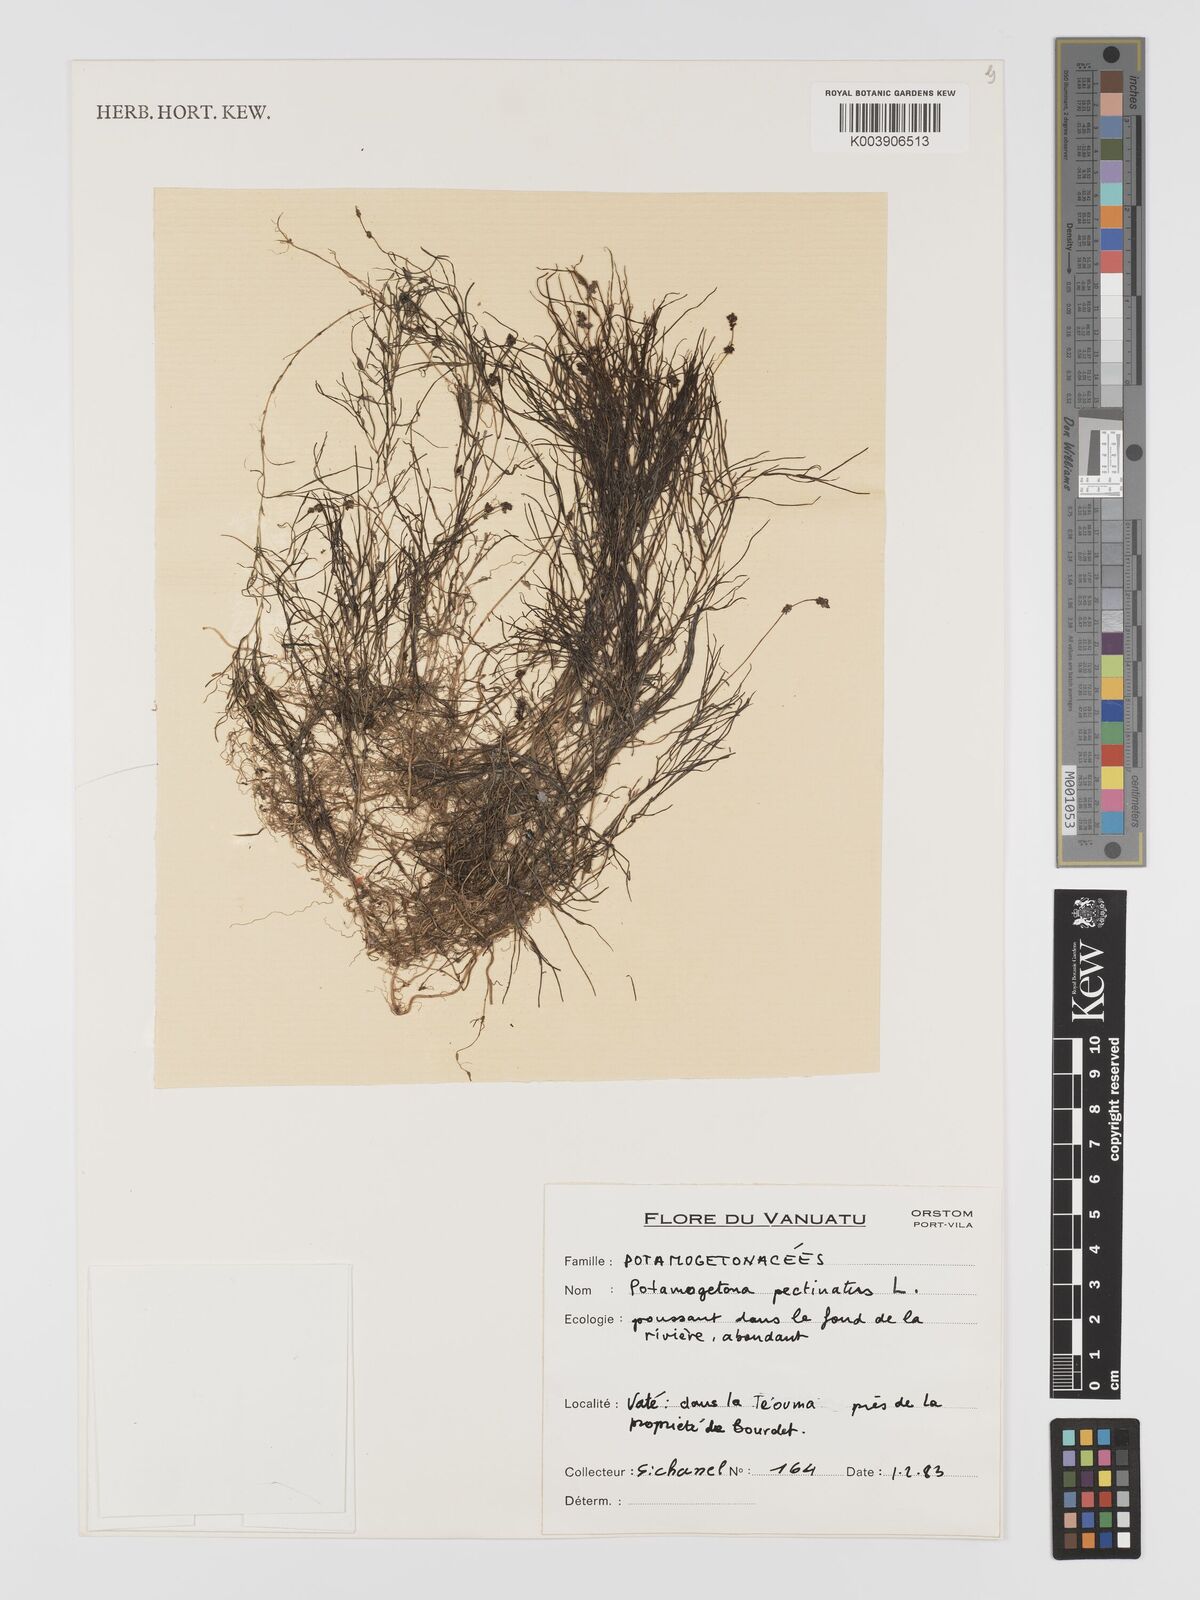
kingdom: Plantae
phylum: Tracheophyta
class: Liliopsida
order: Alismatales
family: Potamogetonaceae
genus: Stuckenia
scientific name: Stuckenia pectinata
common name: Sago pondweed
